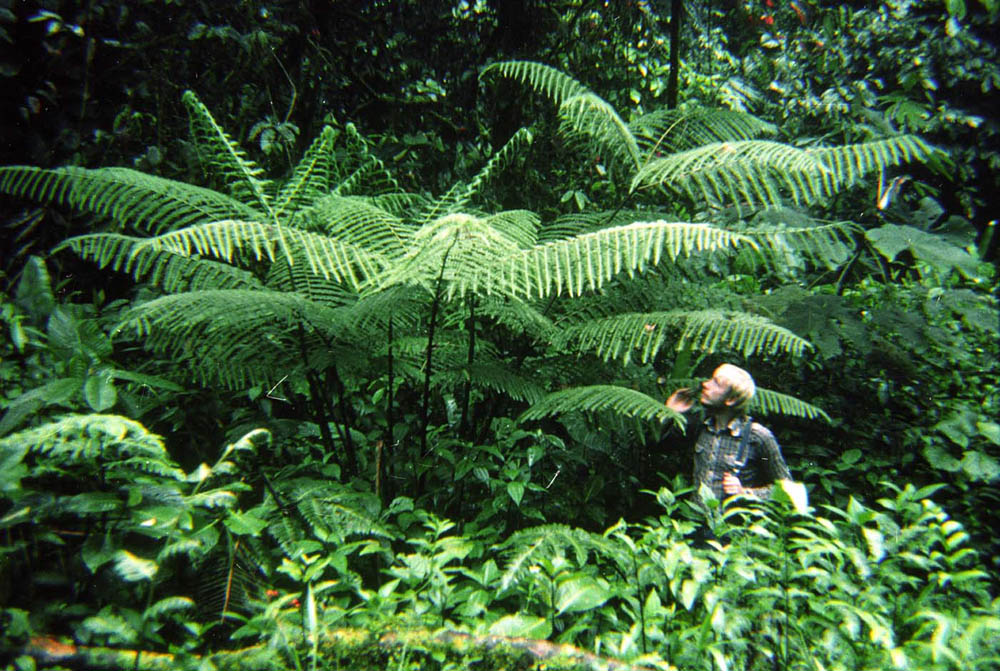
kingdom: Plantae
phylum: Tracheophyta
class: Polypodiopsida
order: Polypodiales
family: Pteridaceae
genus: Pteris
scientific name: Pteris navarrensis
